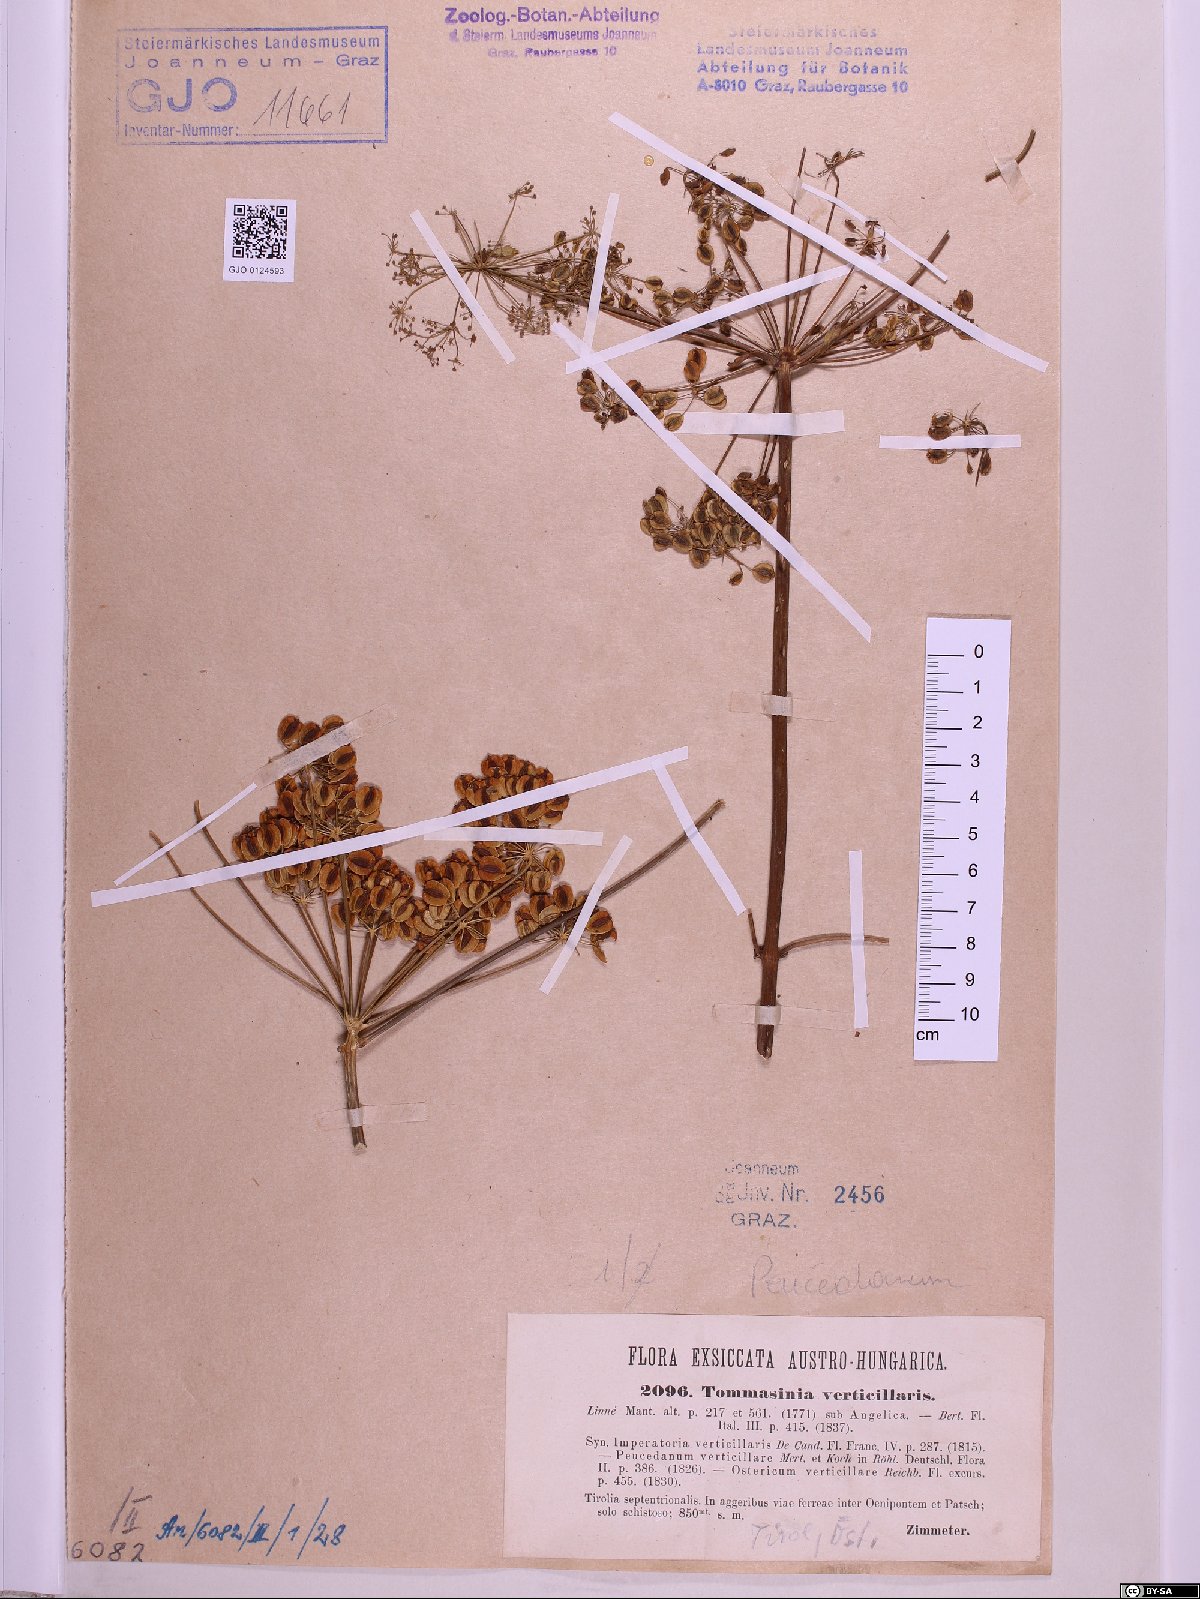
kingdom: Plantae
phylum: Tracheophyta
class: Magnoliopsida
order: Apiales
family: Apiaceae
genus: Tommasinia
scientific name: Tommasinia altissima
